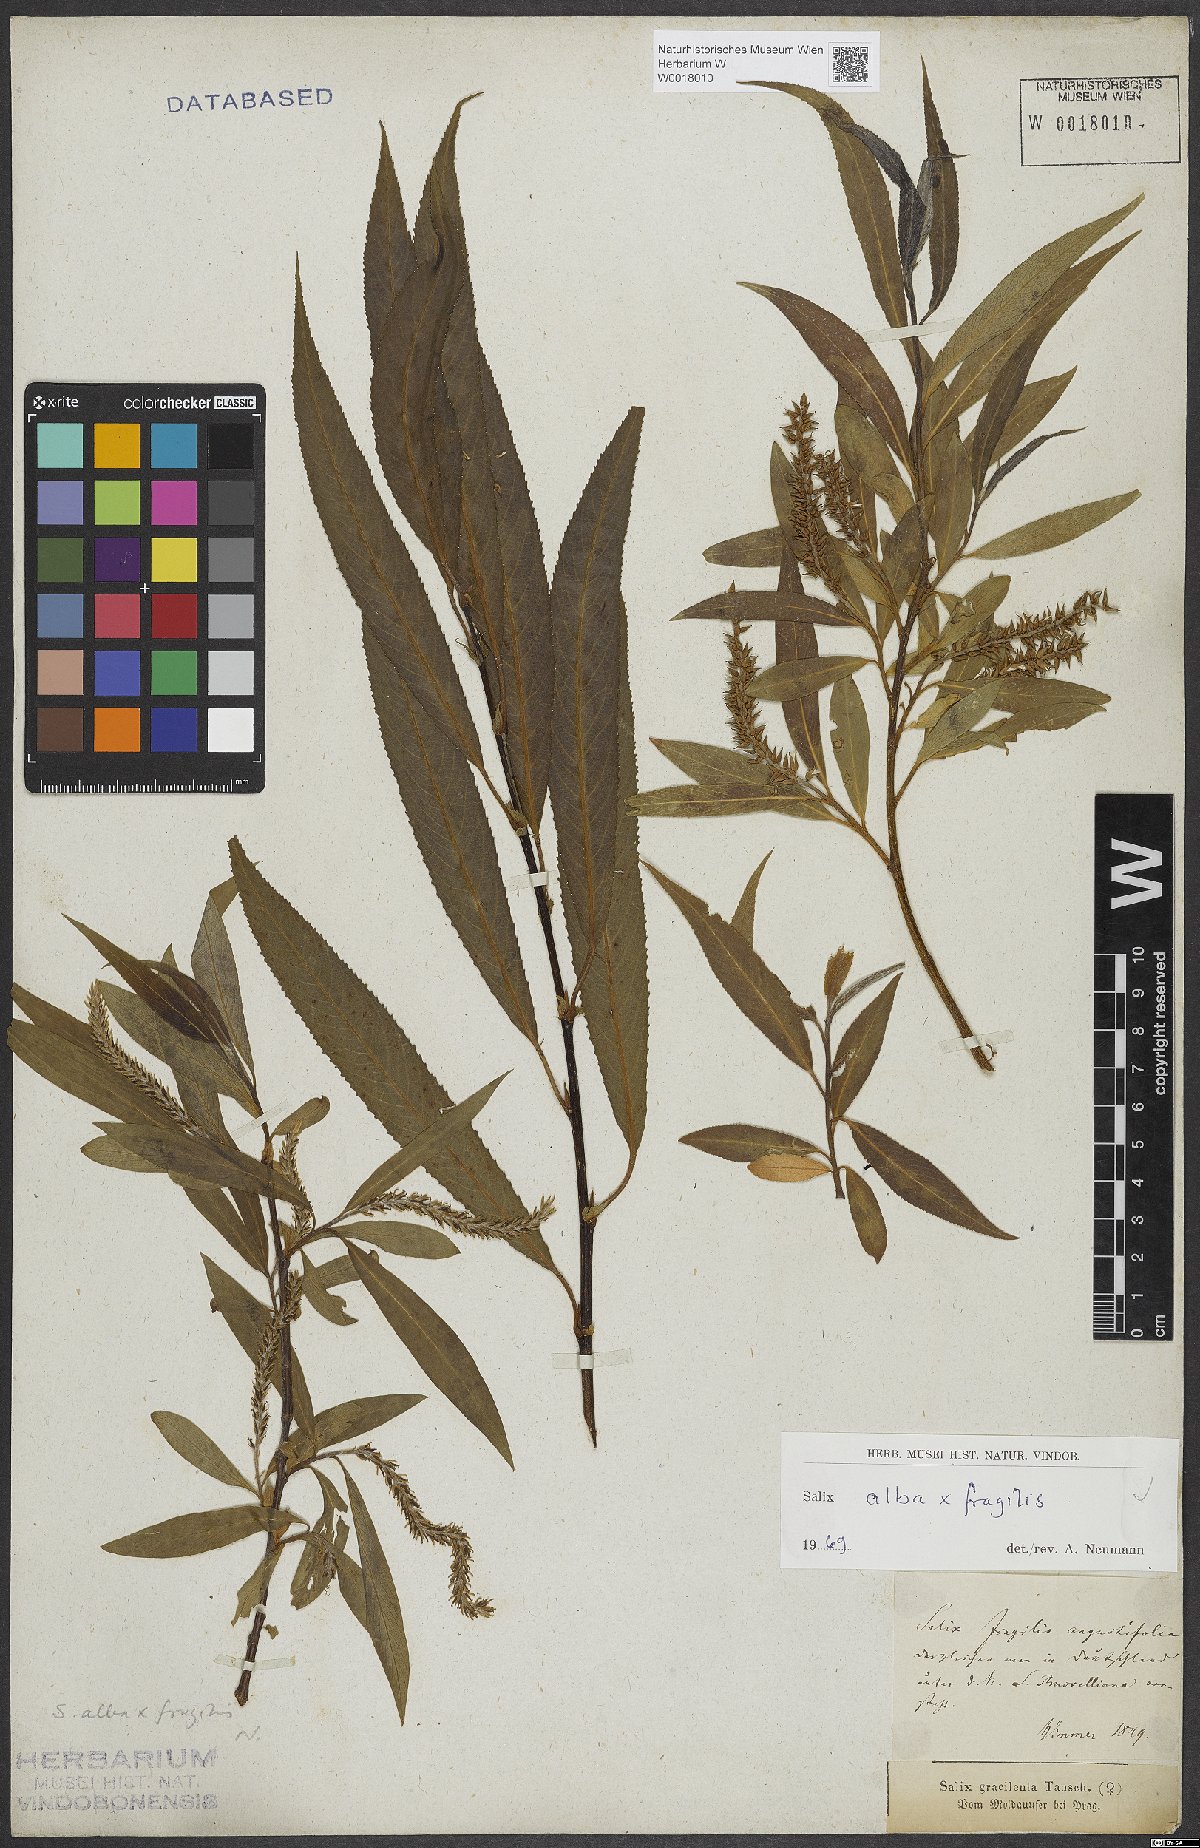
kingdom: Plantae
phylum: Tracheophyta
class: Magnoliopsida
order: Malpighiales
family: Salicaceae
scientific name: Salicaceae
